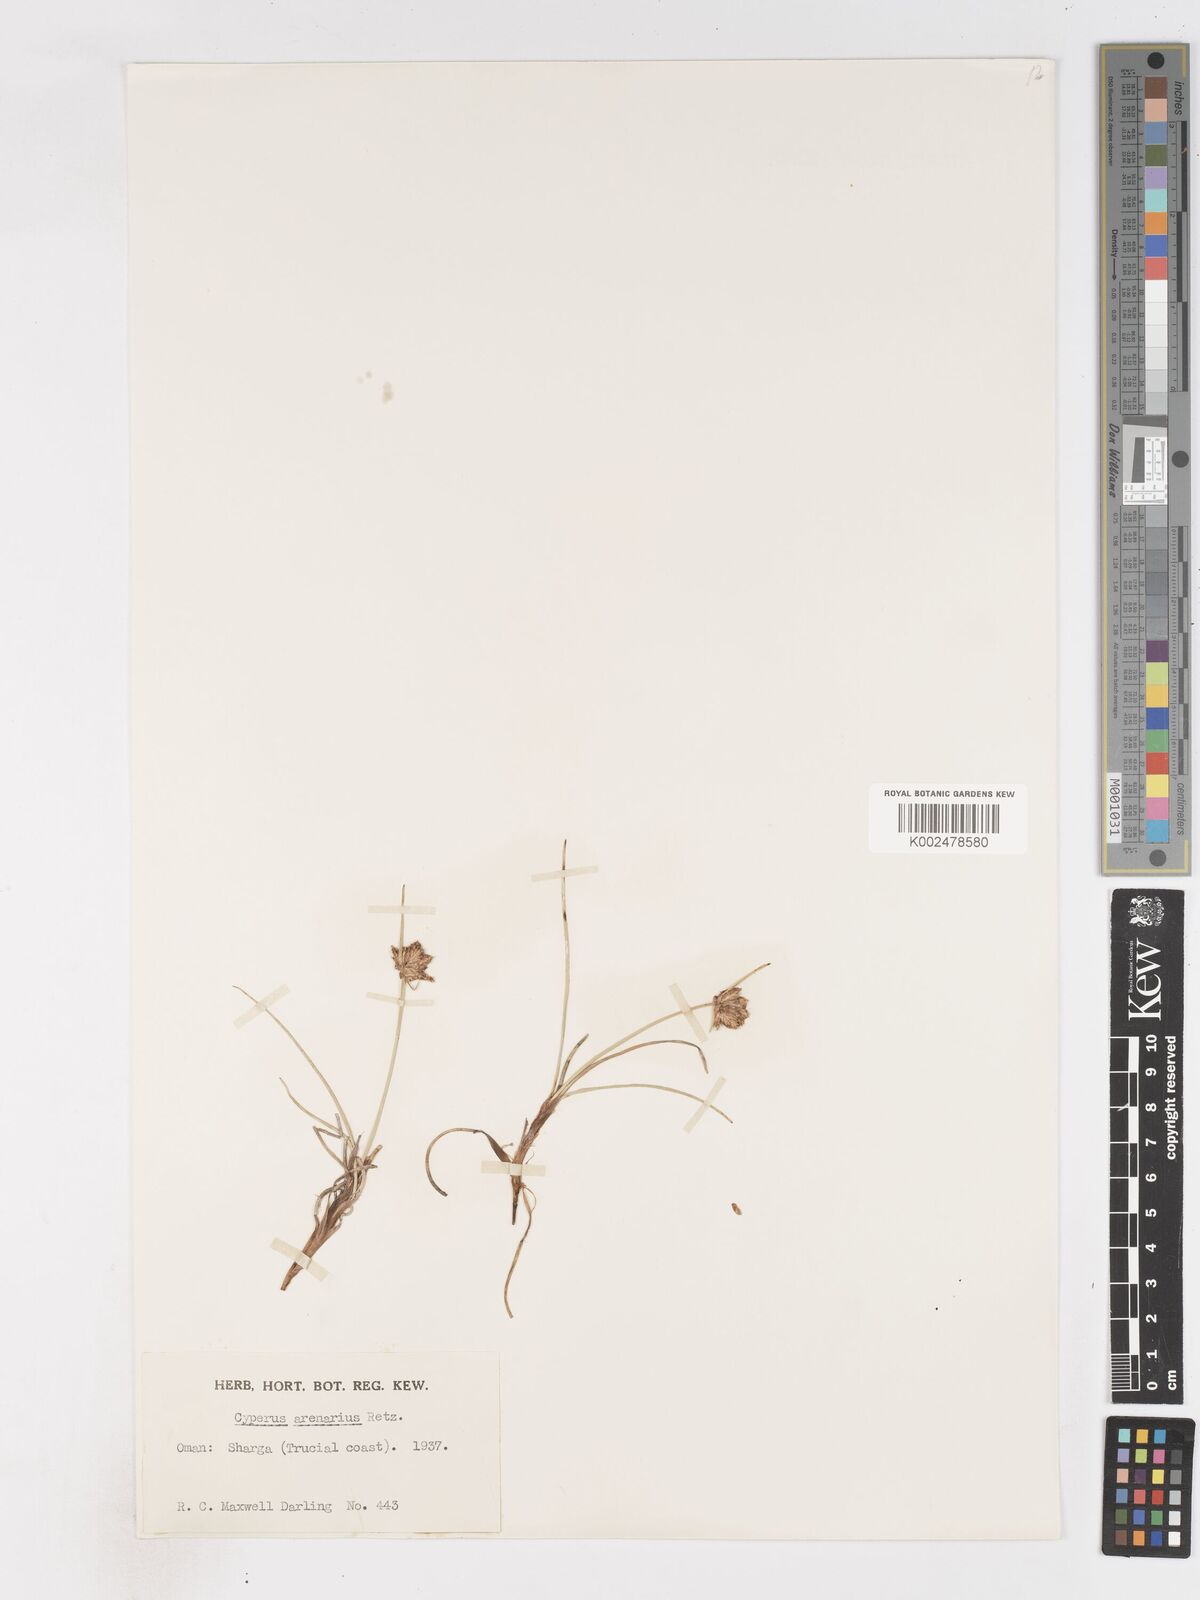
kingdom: Plantae
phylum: Tracheophyta
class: Liliopsida
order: Poales
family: Cyperaceae
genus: Cyperus
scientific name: Cyperus arenarius
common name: Dwarf sedge
